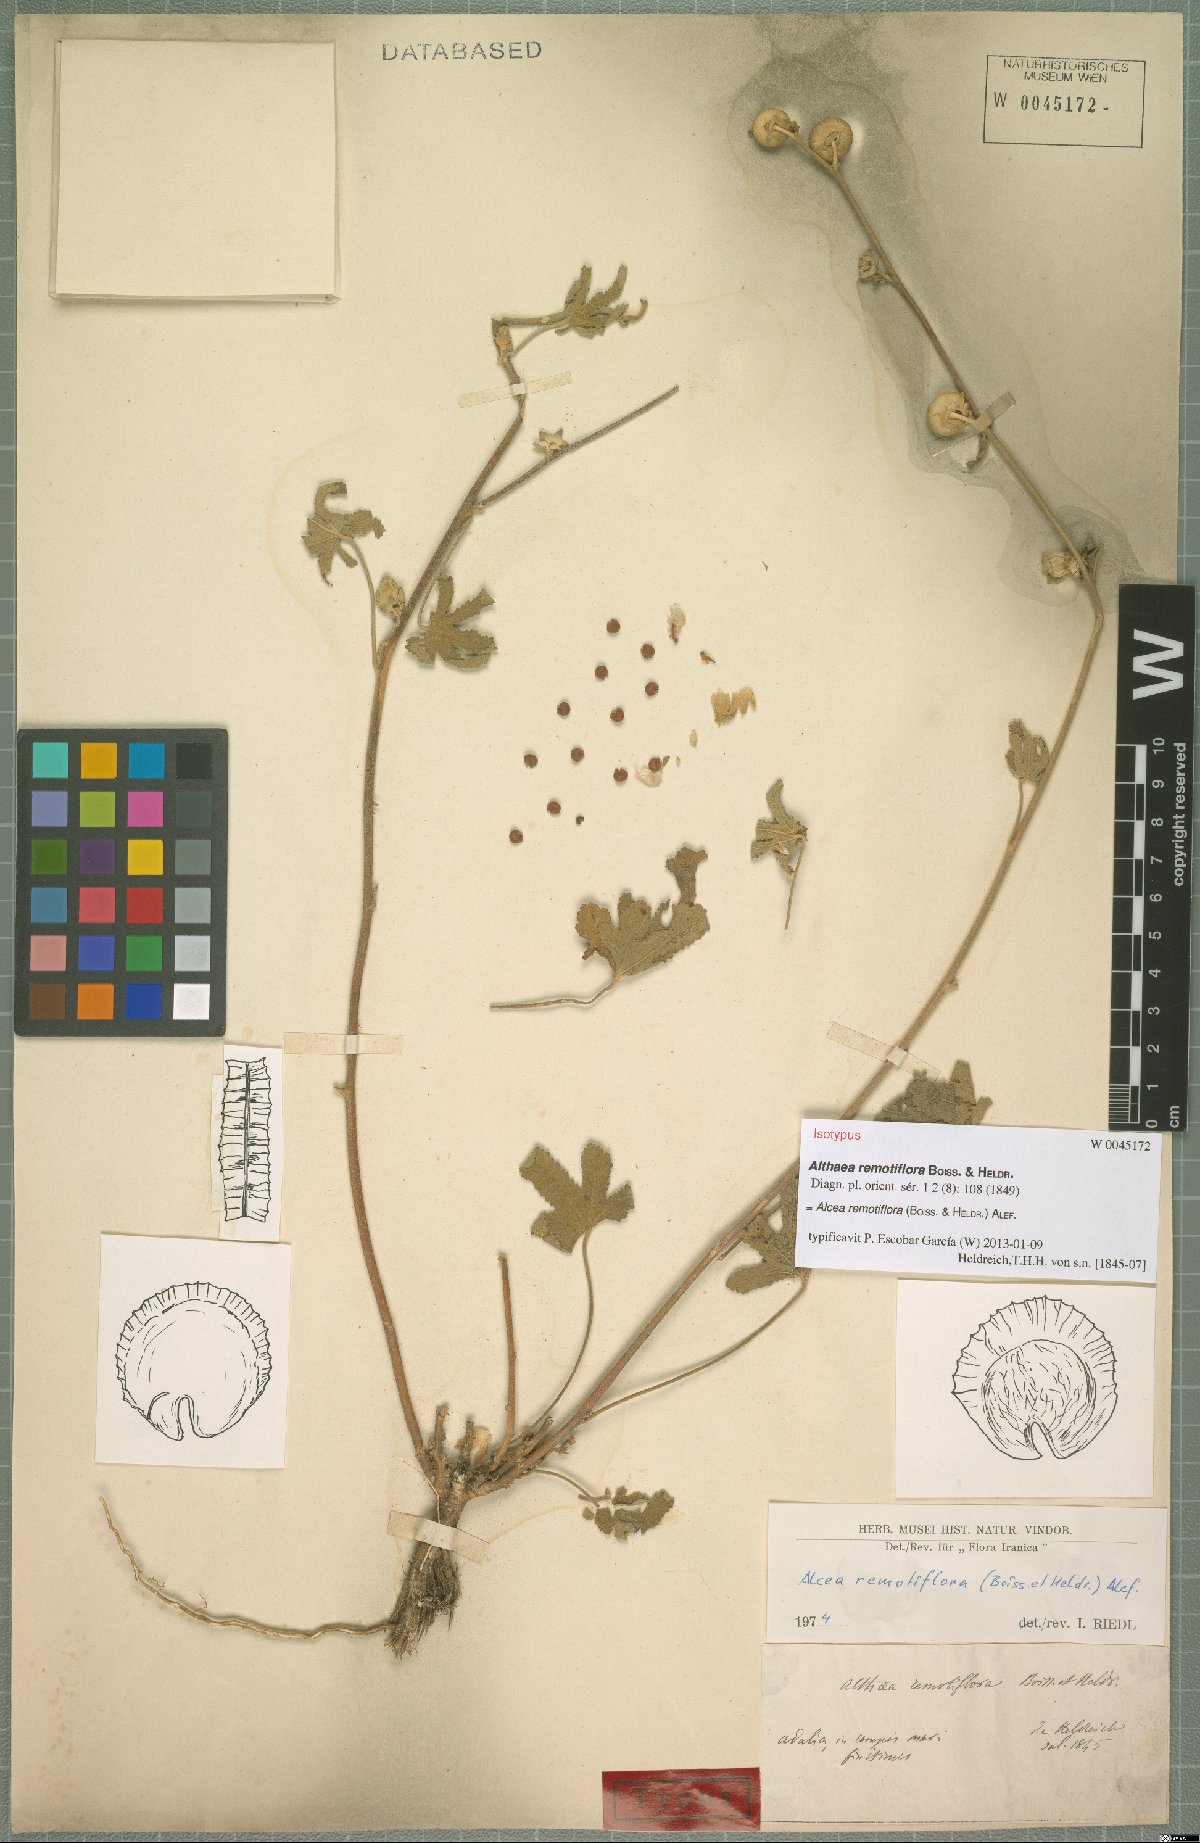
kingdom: Plantae
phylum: Tracheophyta
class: Magnoliopsida
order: Malvales
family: Malvaceae
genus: Alcea
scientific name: Alcea remotiflora
